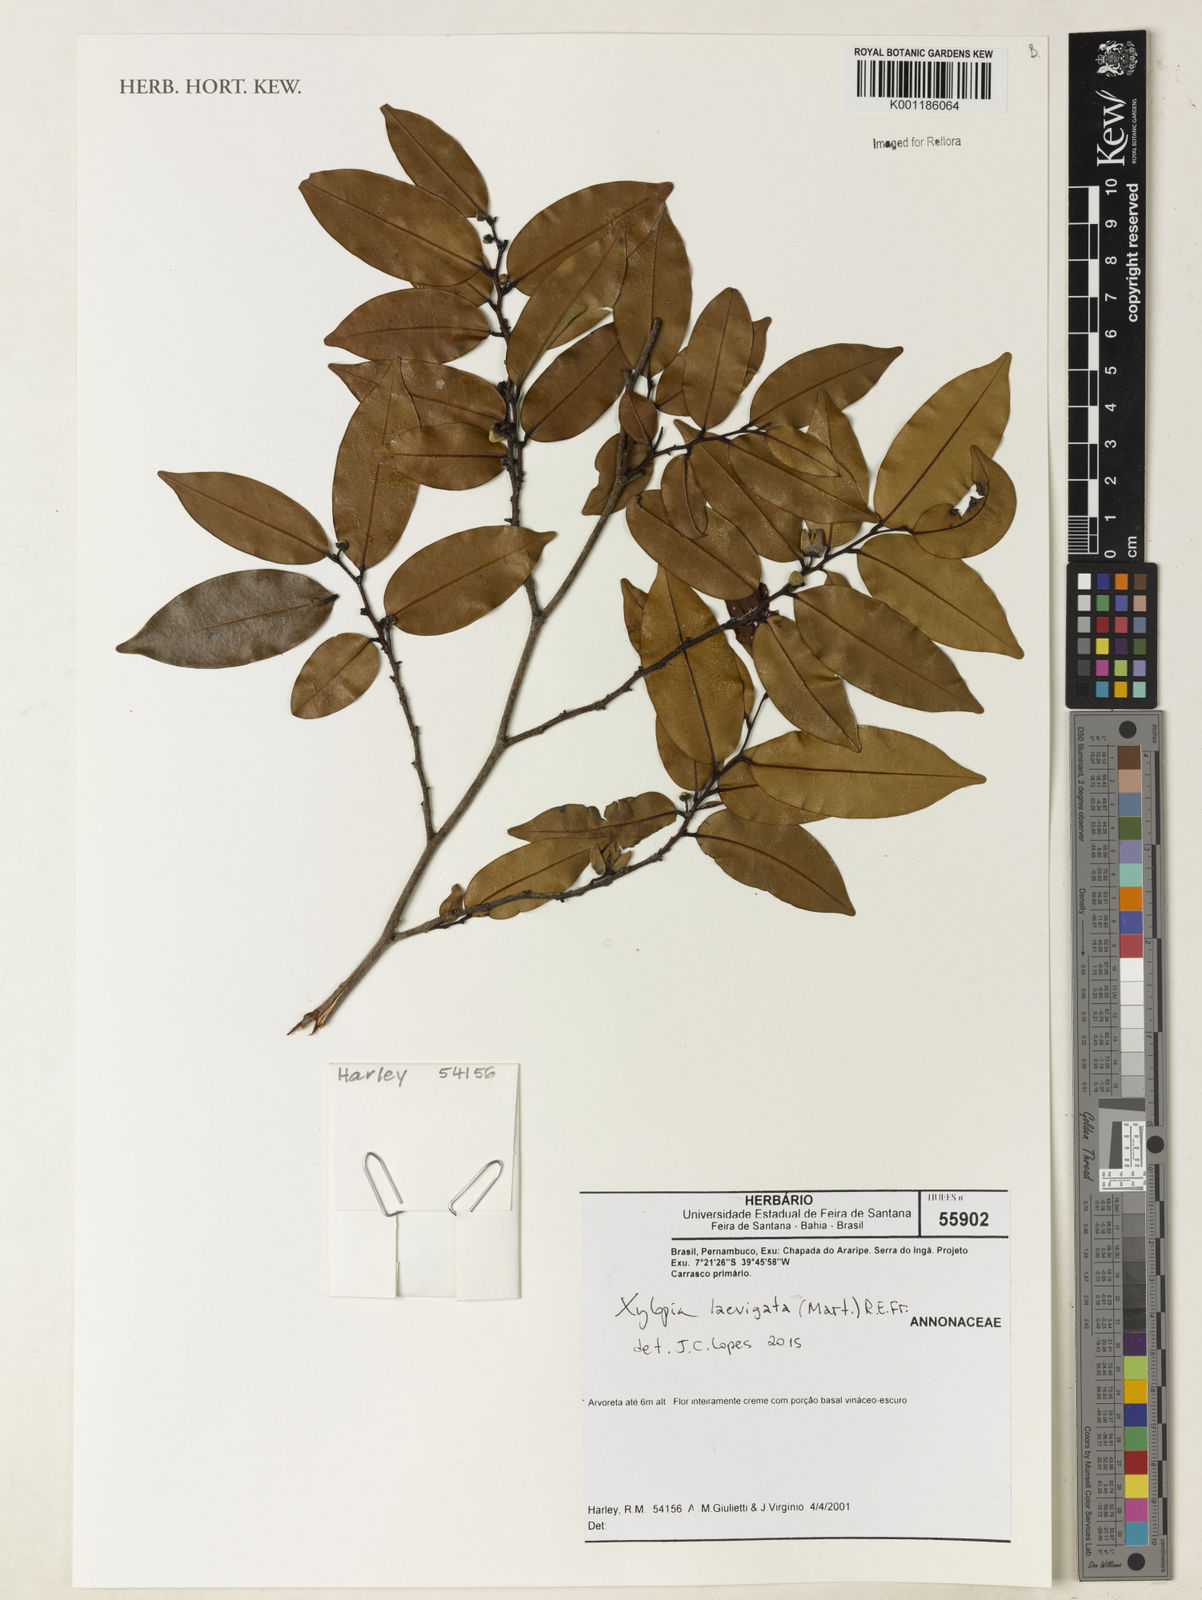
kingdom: Plantae
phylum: Tracheophyta
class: Magnoliopsida
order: Magnoliales
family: Annonaceae
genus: Xylopia
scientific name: Xylopia laevigata
